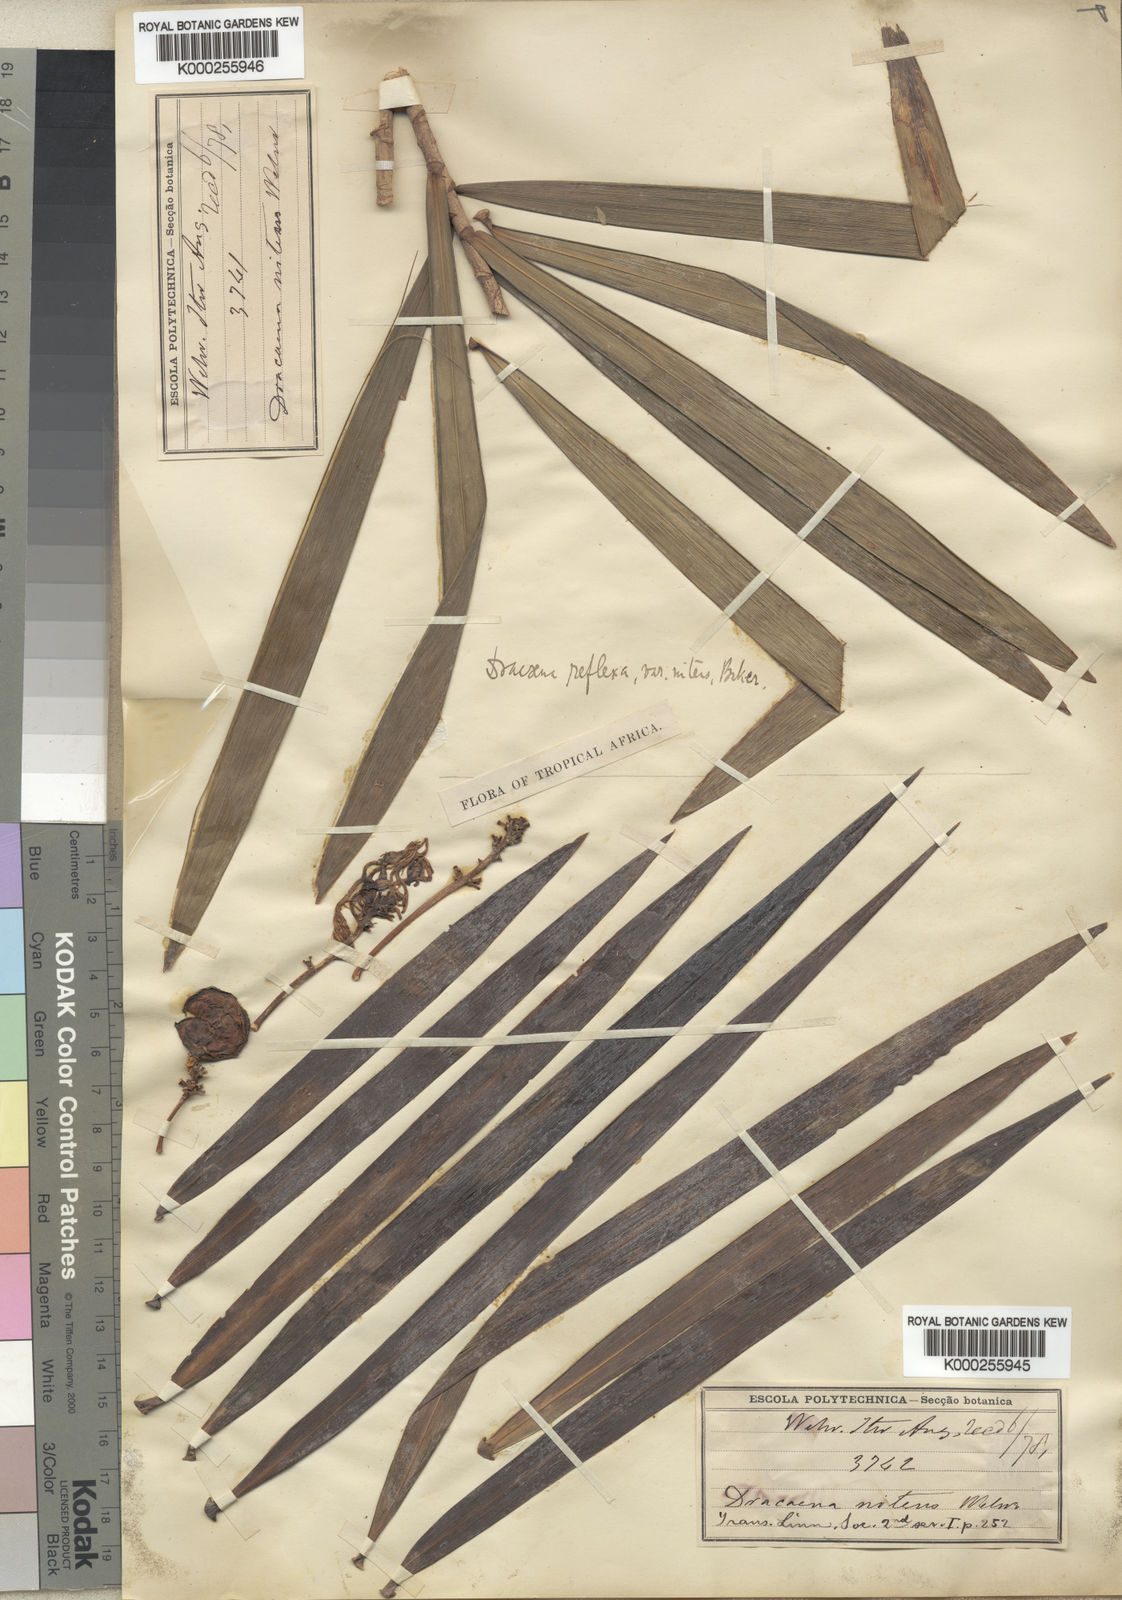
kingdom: Plantae
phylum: Tracheophyta
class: Liliopsida
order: Asparagales
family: Asparagaceae
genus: Dracaena
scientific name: Dracaena nitens
